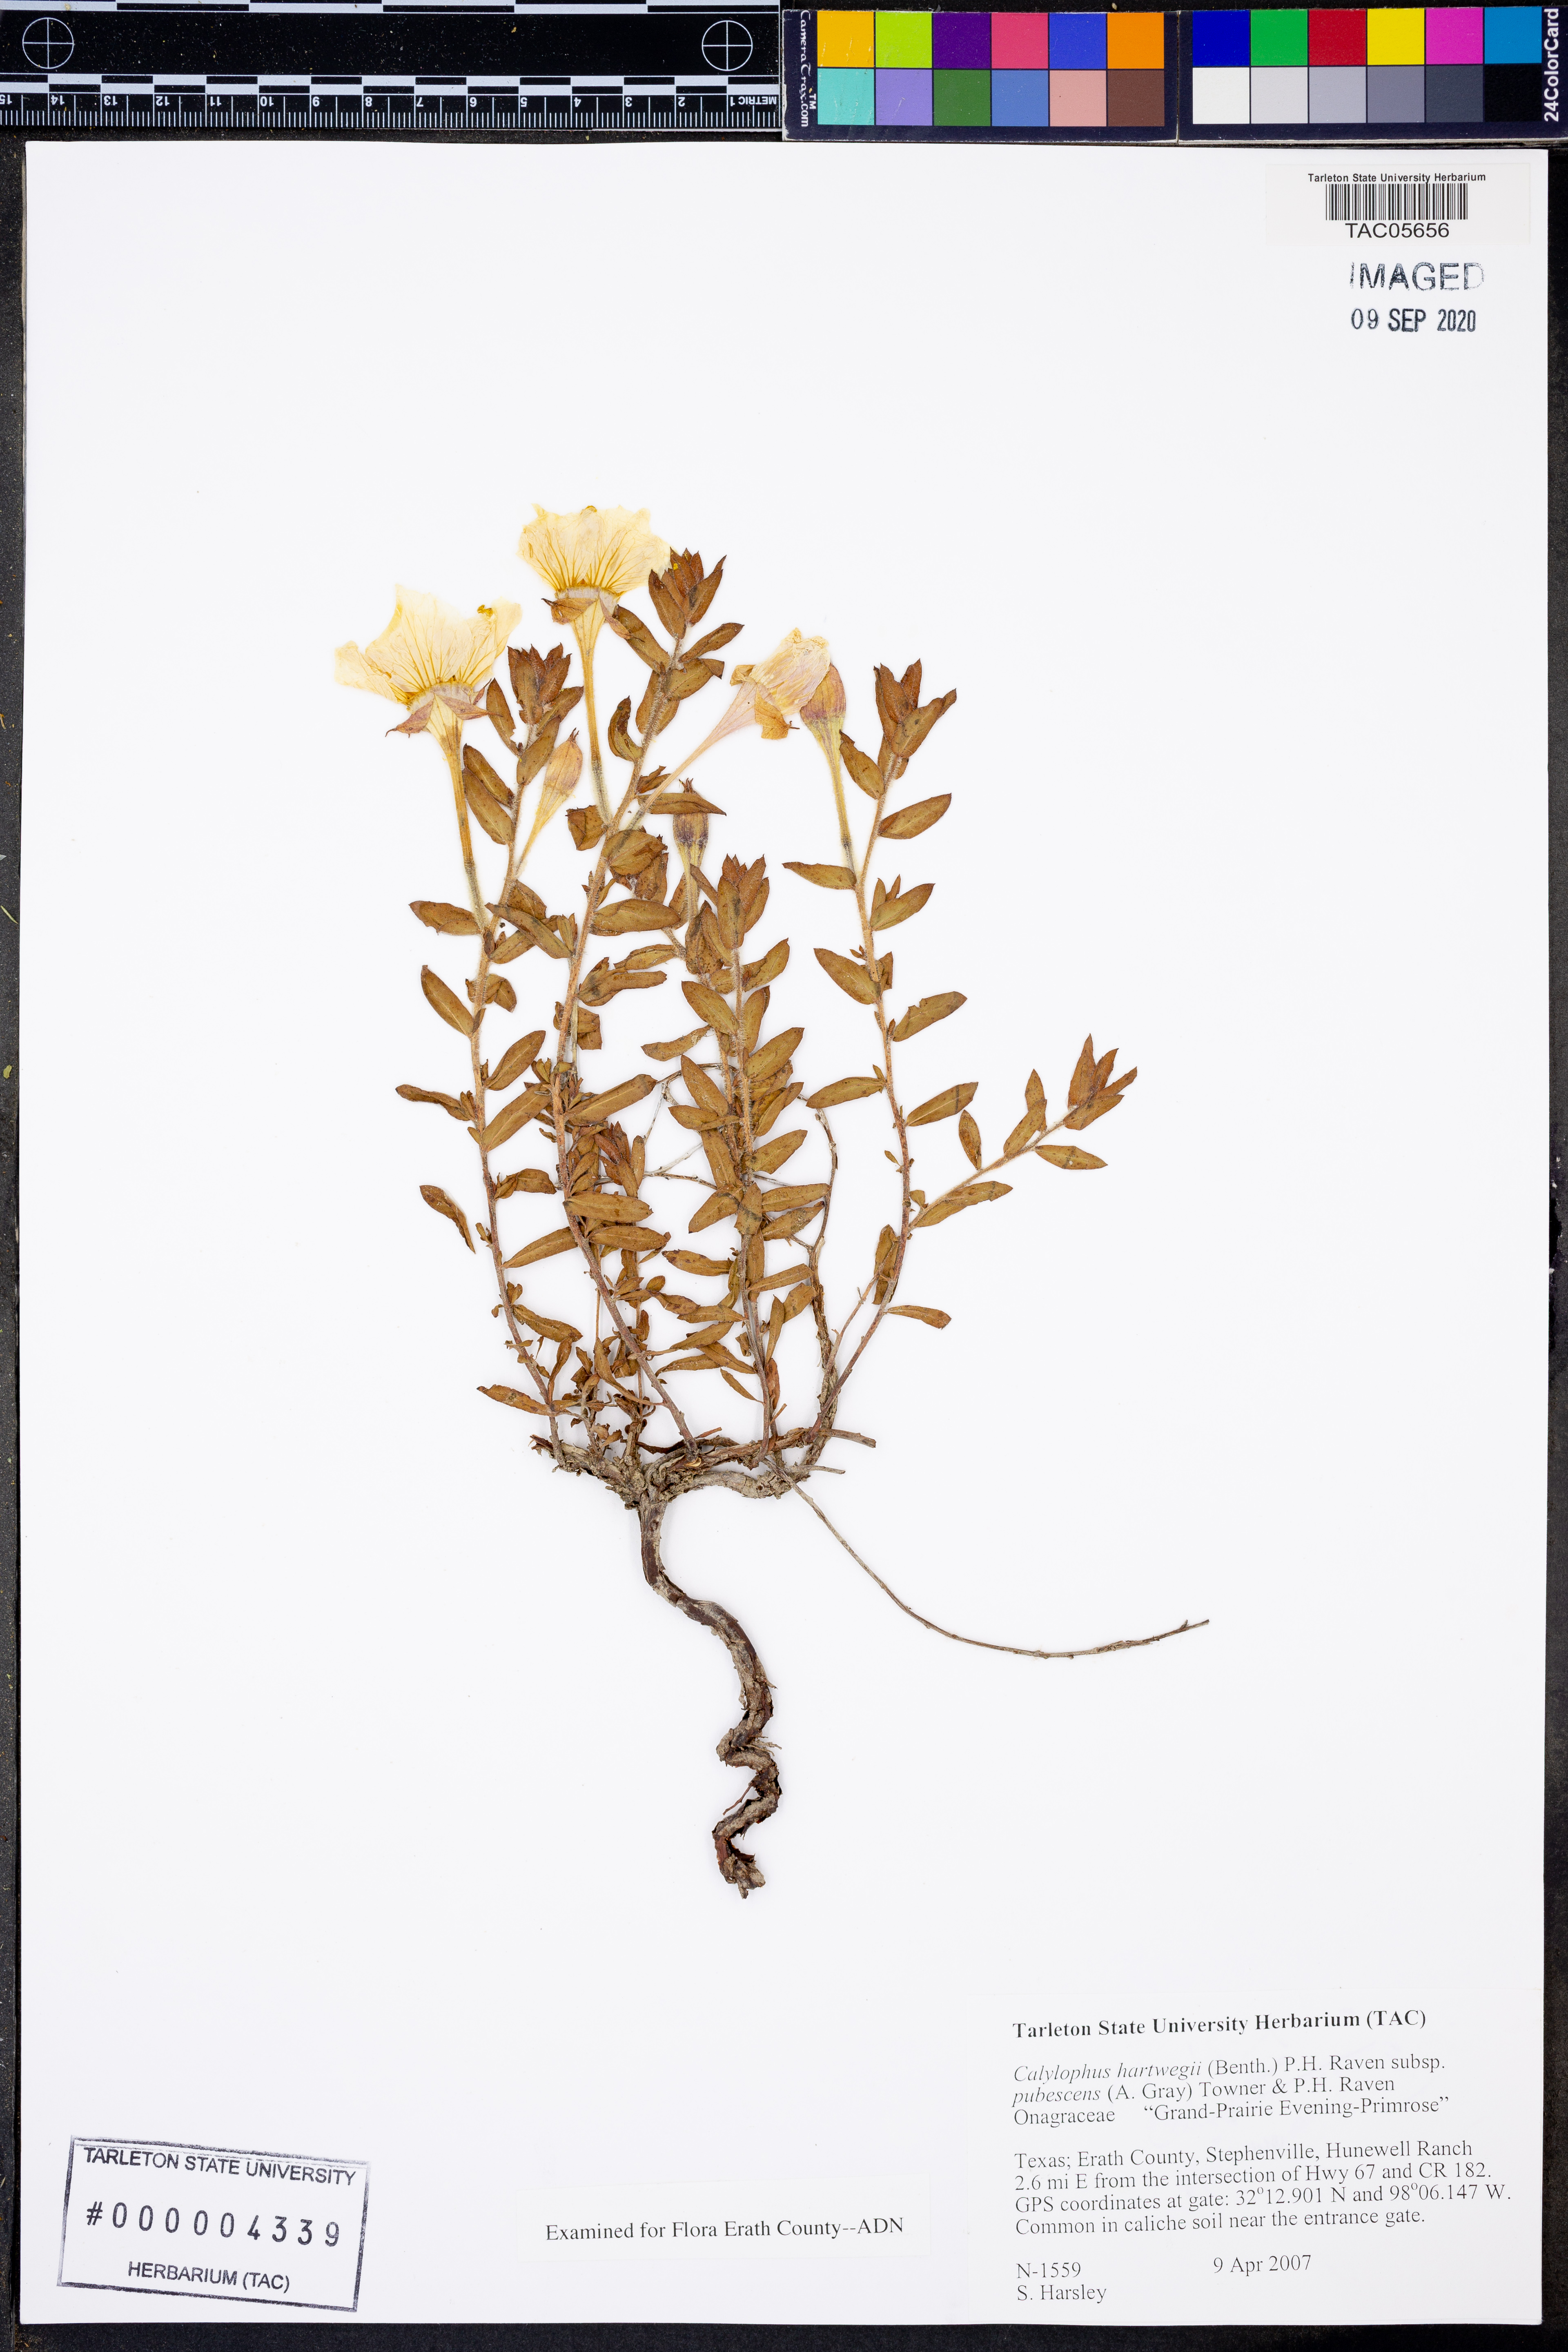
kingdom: Plantae
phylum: Tracheophyta
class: Magnoliopsida
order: Myrtales
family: Onagraceae
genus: Oenothera
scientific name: Oenothera hartwegii
